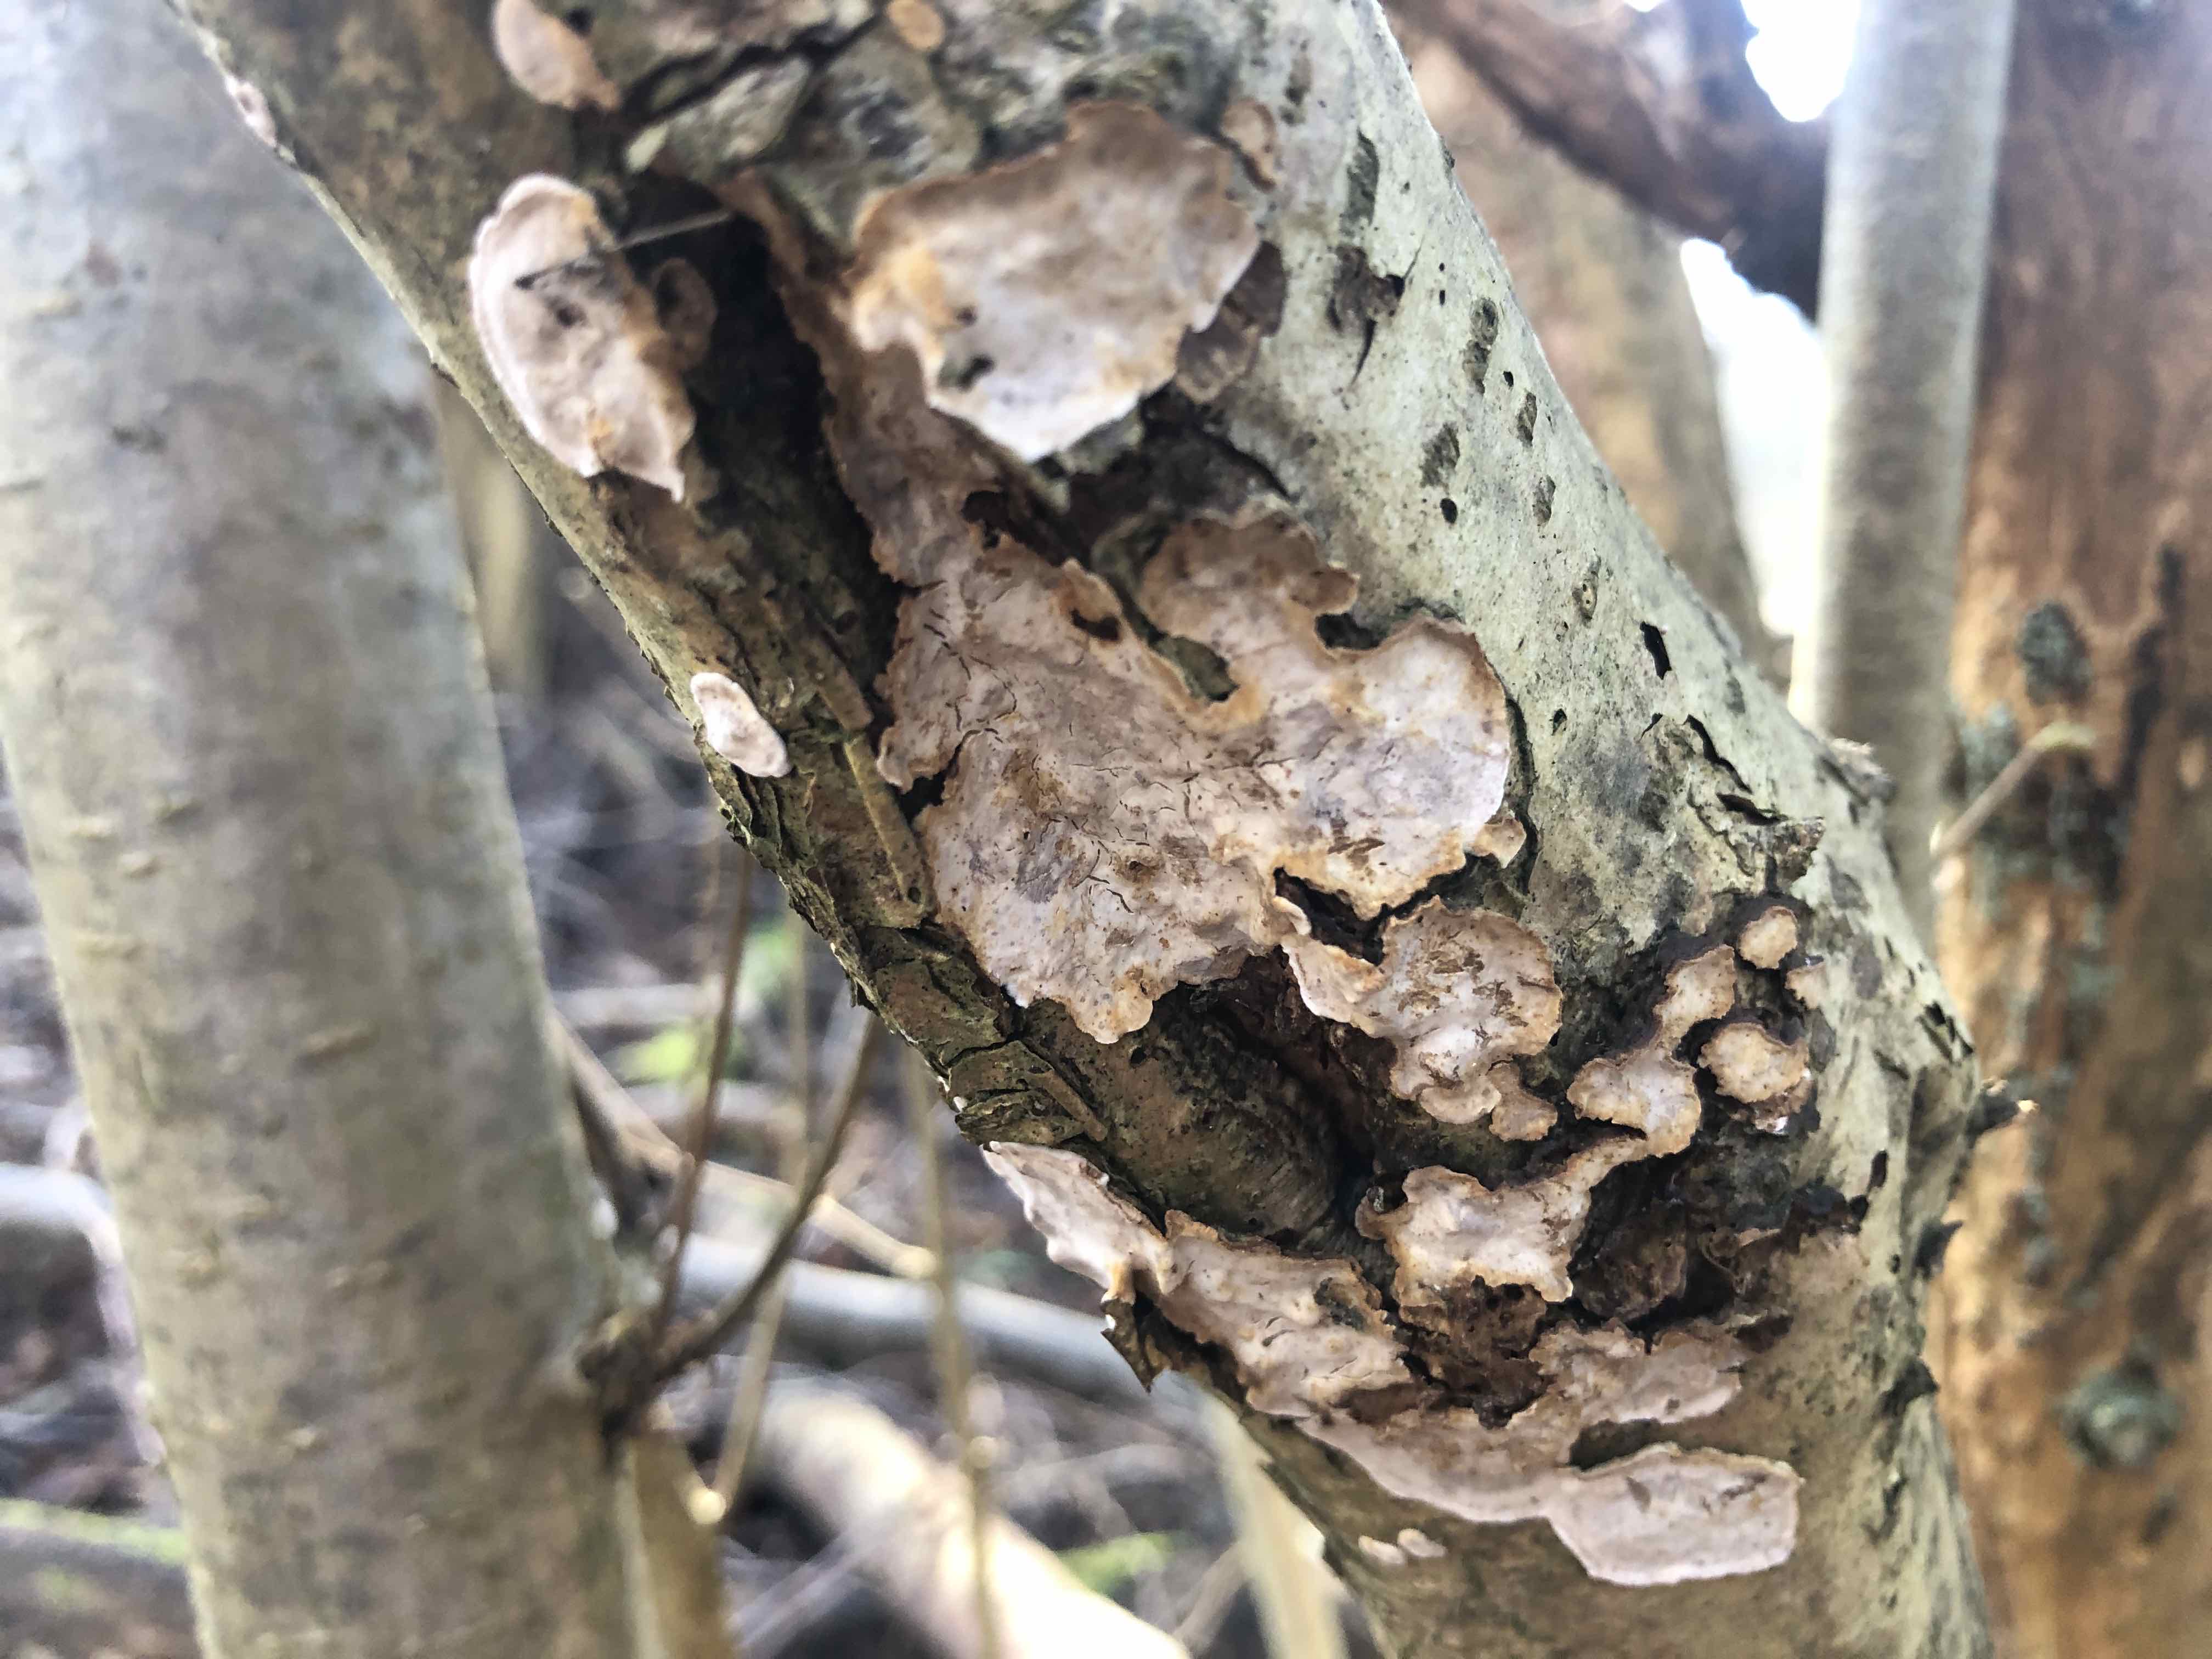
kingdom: Fungi
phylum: Basidiomycota
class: Agaricomycetes
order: Russulales
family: Stereaceae
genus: Stereum
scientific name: Stereum rugosum
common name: rynket lædersvamp
